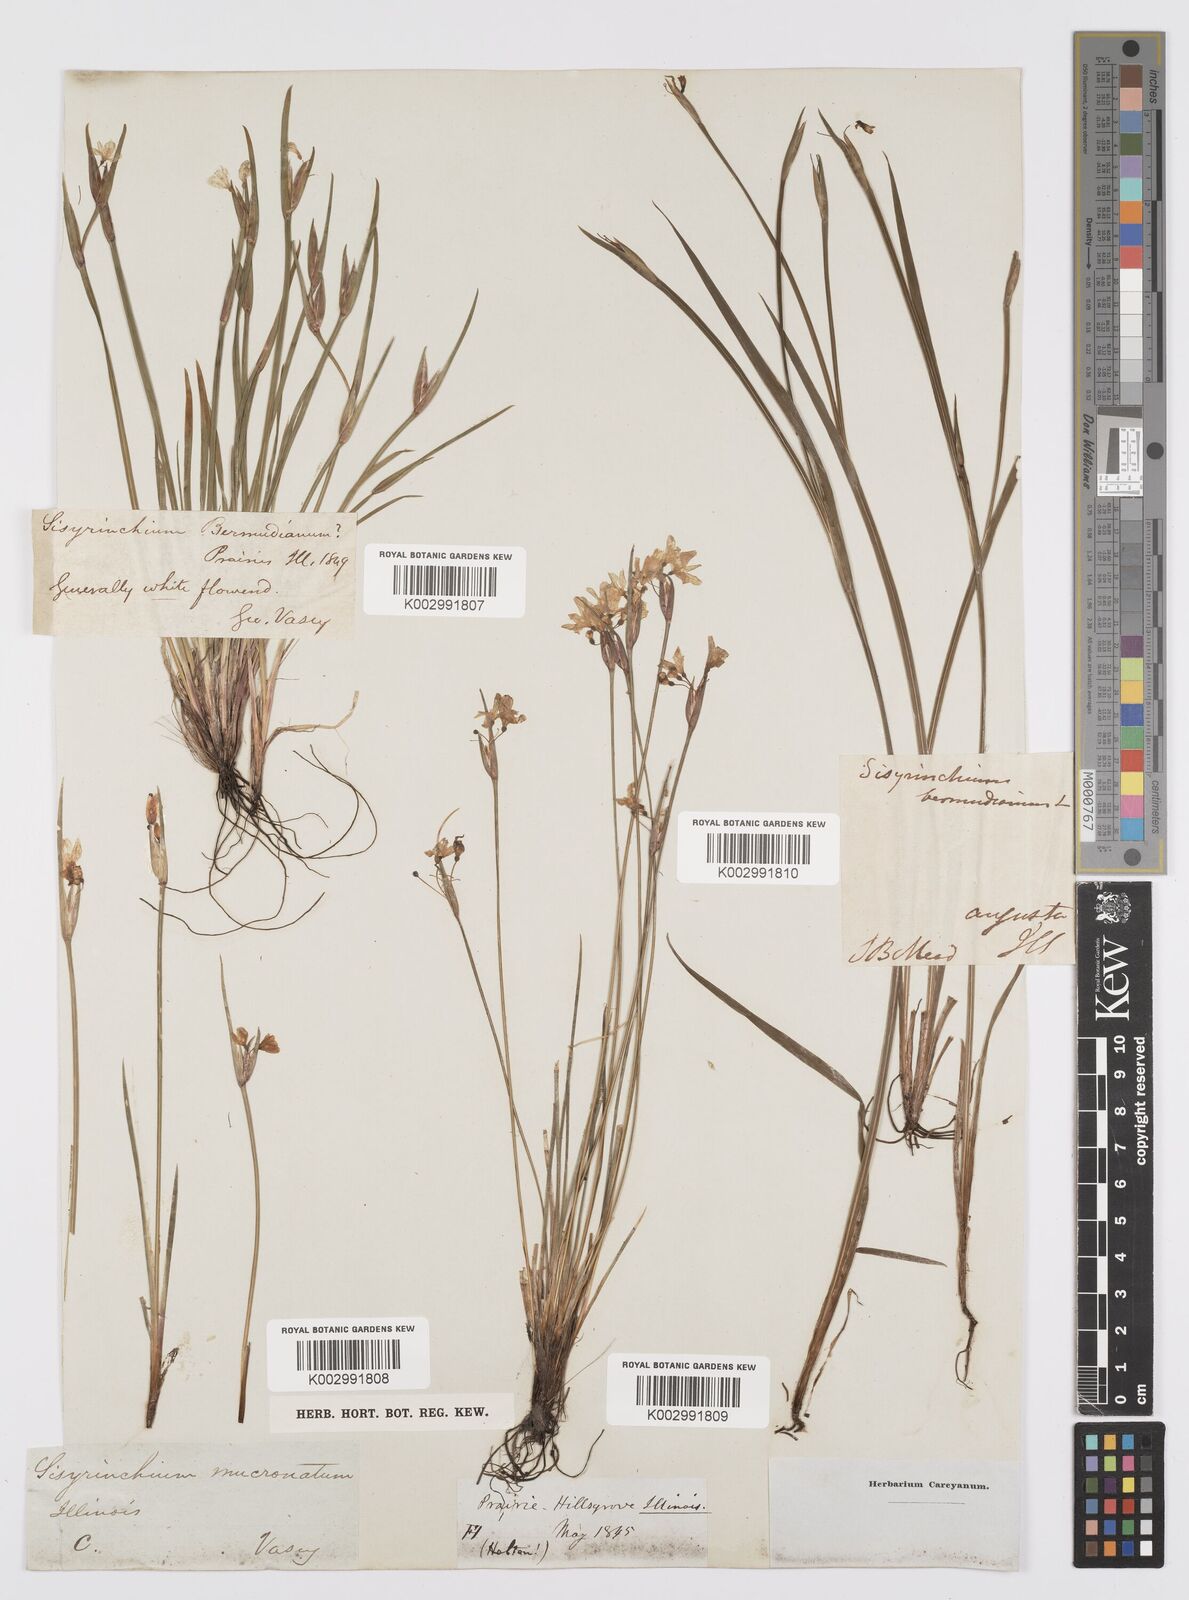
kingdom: Plantae
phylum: Tracheophyta
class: Liliopsida
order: Asparagales
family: Iridaceae
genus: Sisyrinchium
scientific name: Sisyrinchium bermudiana
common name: Blue-eyed-grass
